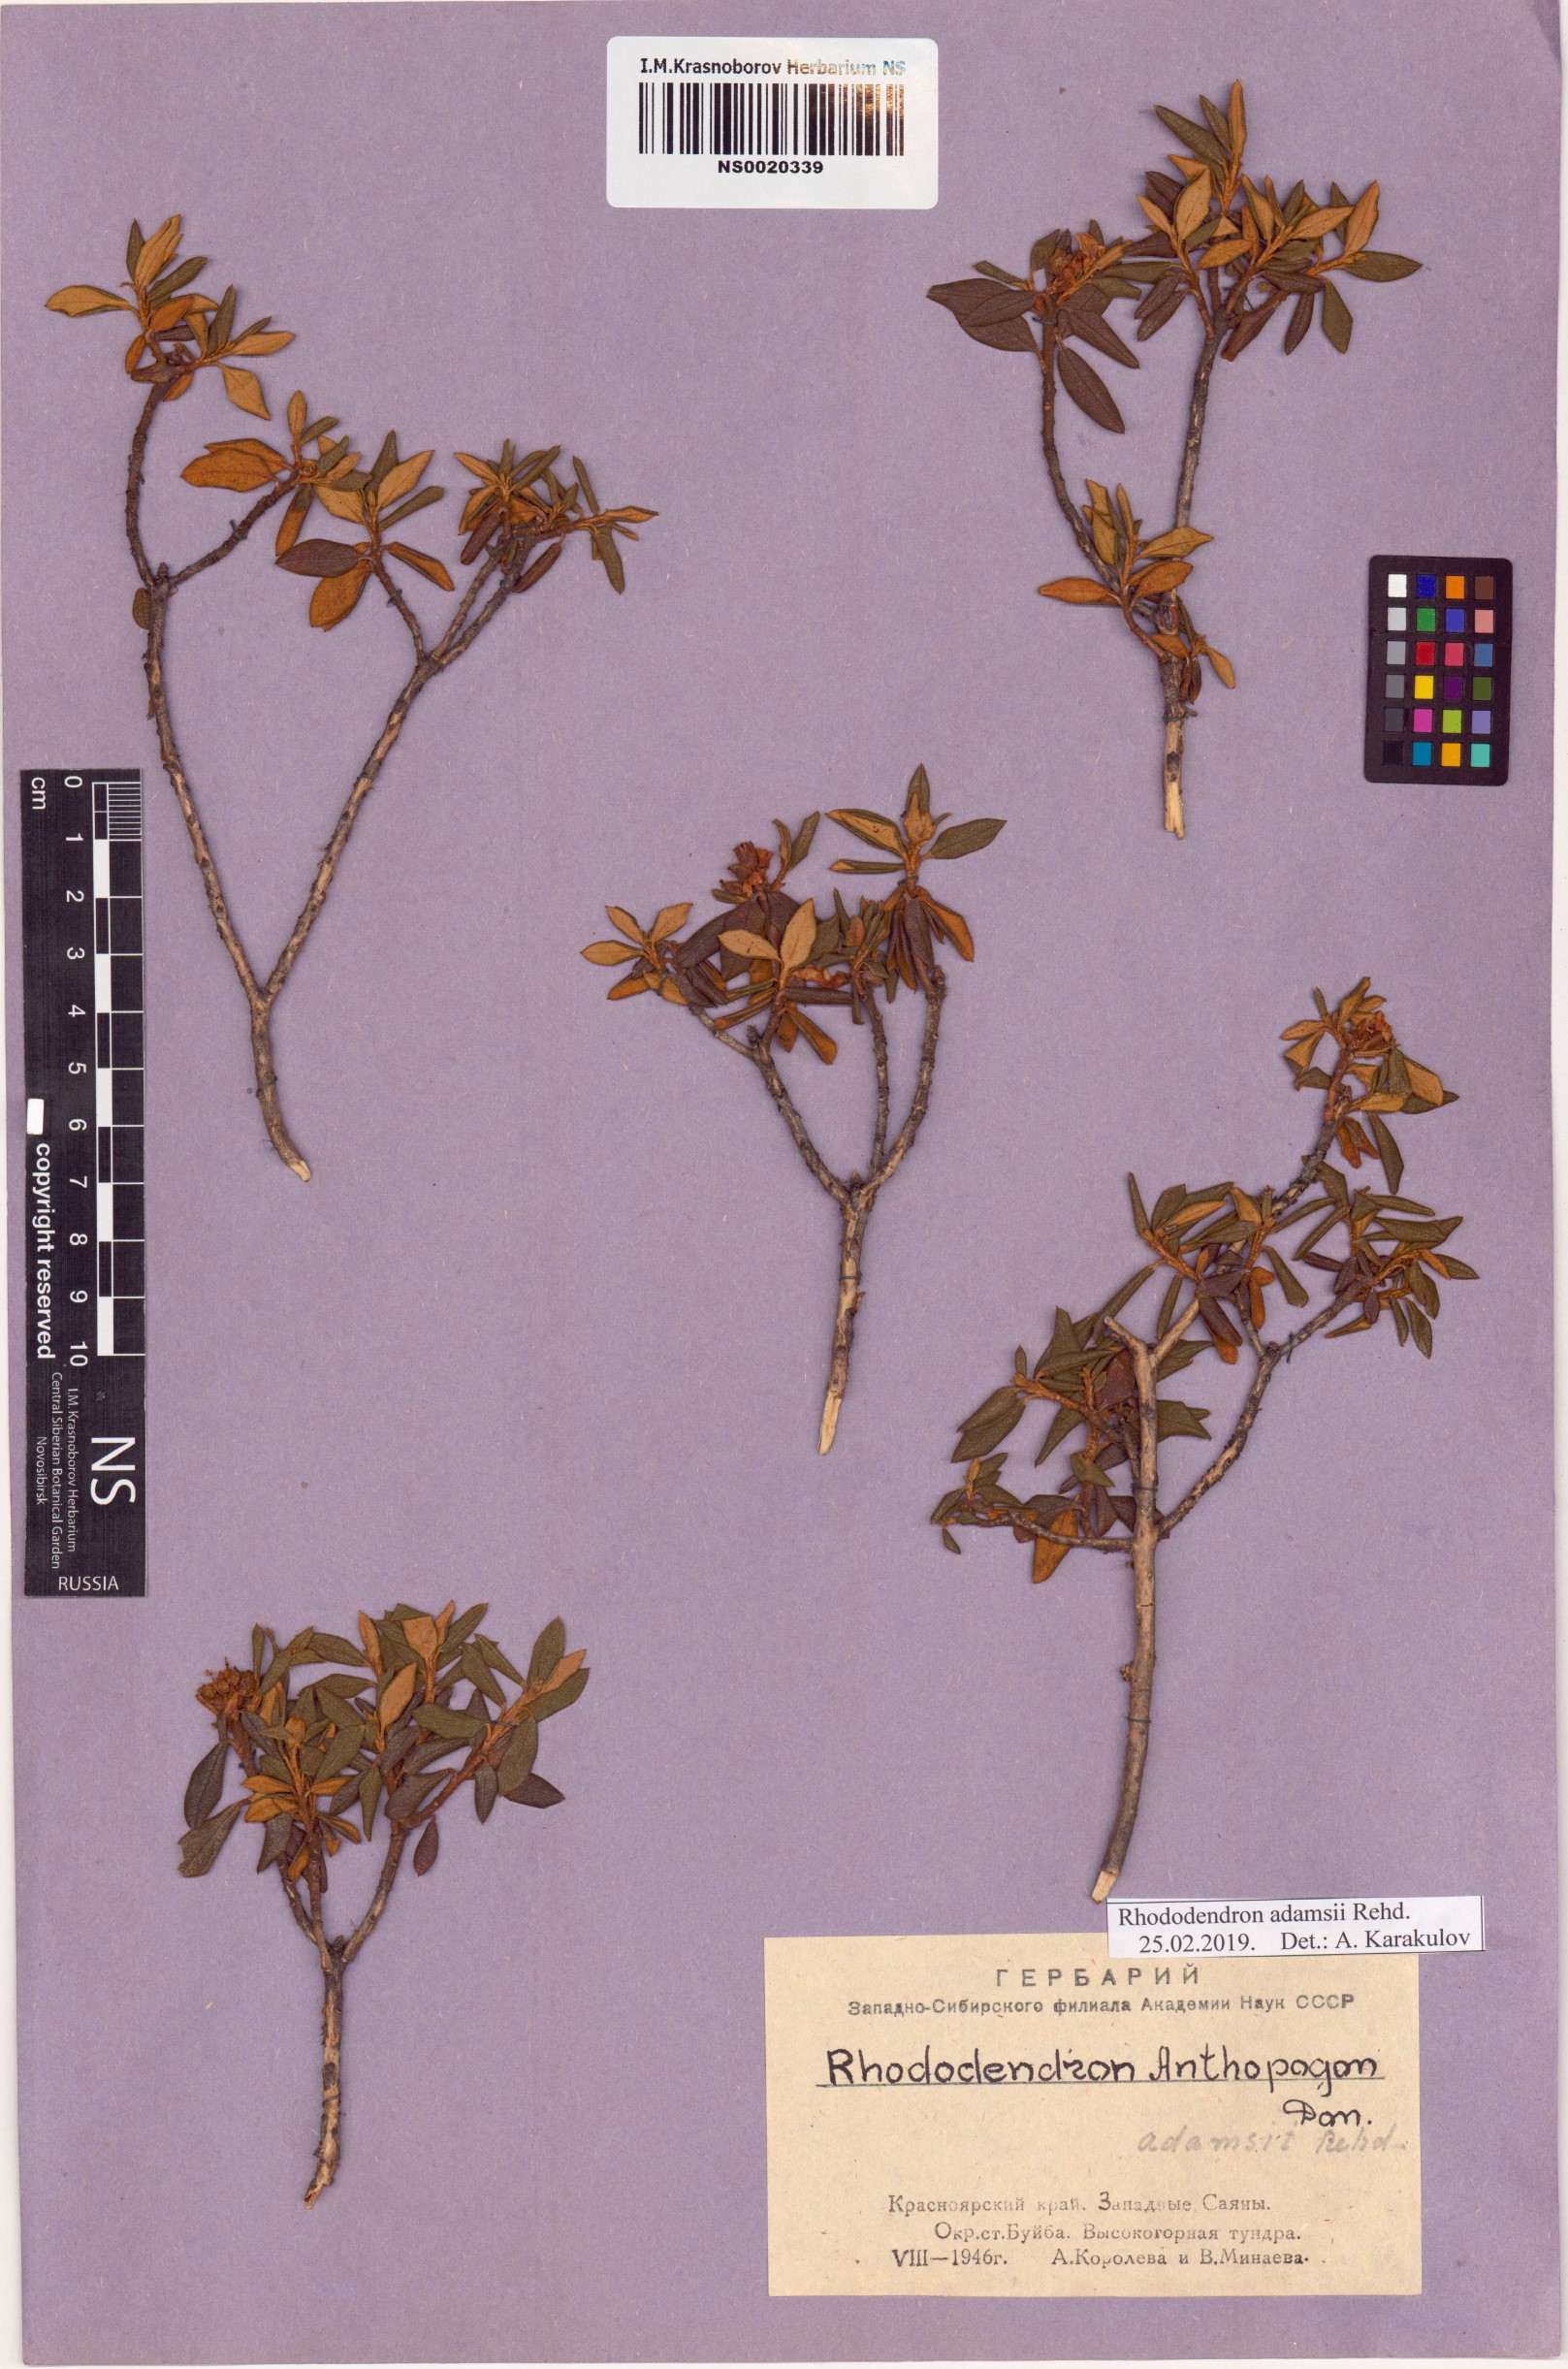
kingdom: Plantae
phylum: Tracheophyta
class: Magnoliopsida
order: Ericales
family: Ericaceae
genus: Rhododendron
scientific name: Rhododendron adamsii
